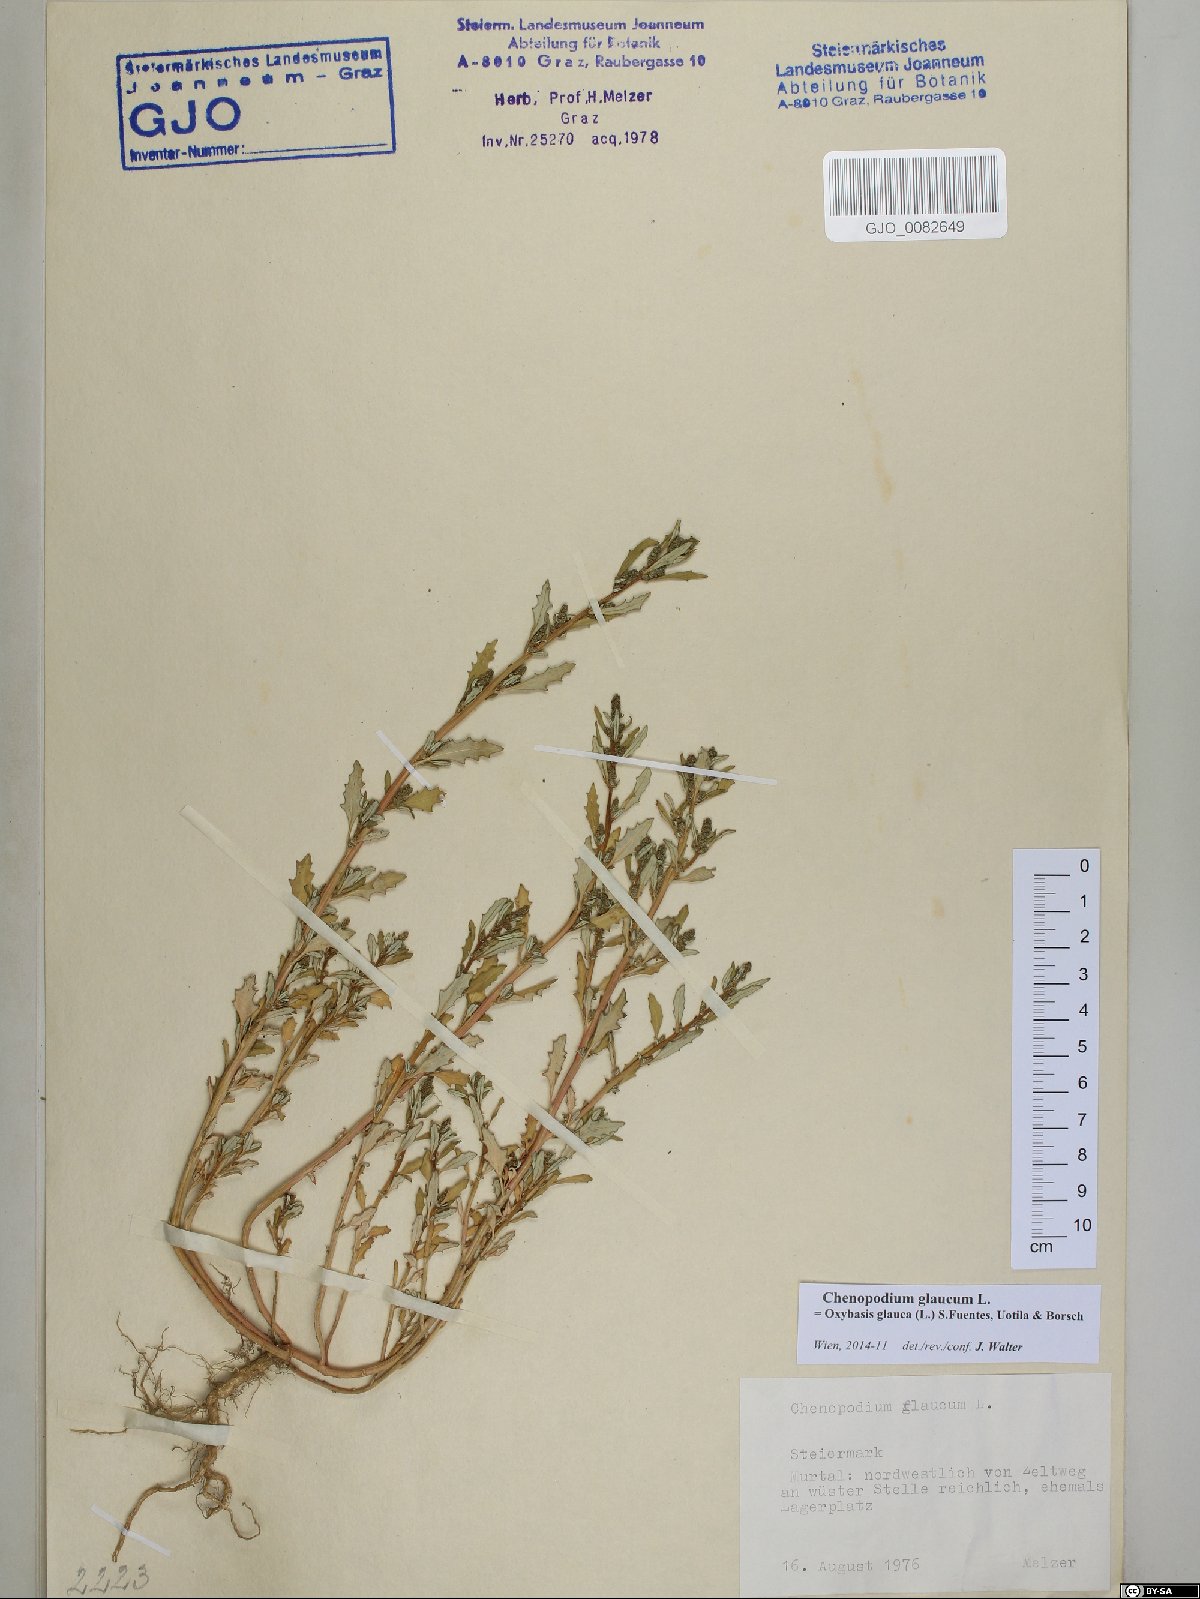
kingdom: Plantae
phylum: Tracheophyta
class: Magnoliopsida
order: Caryophyllales
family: Amaranthaceae
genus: Oxybasis
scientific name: Oxybasis glauca
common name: Glaucous goosefoot
